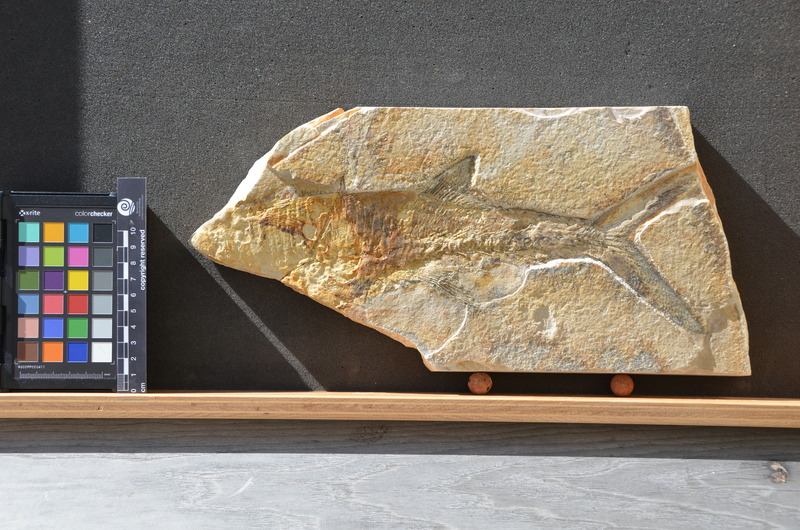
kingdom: Animalia
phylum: Chordata
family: Aspidorhynchidae
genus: Aspidorhynchus
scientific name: Aspidorhynchus
